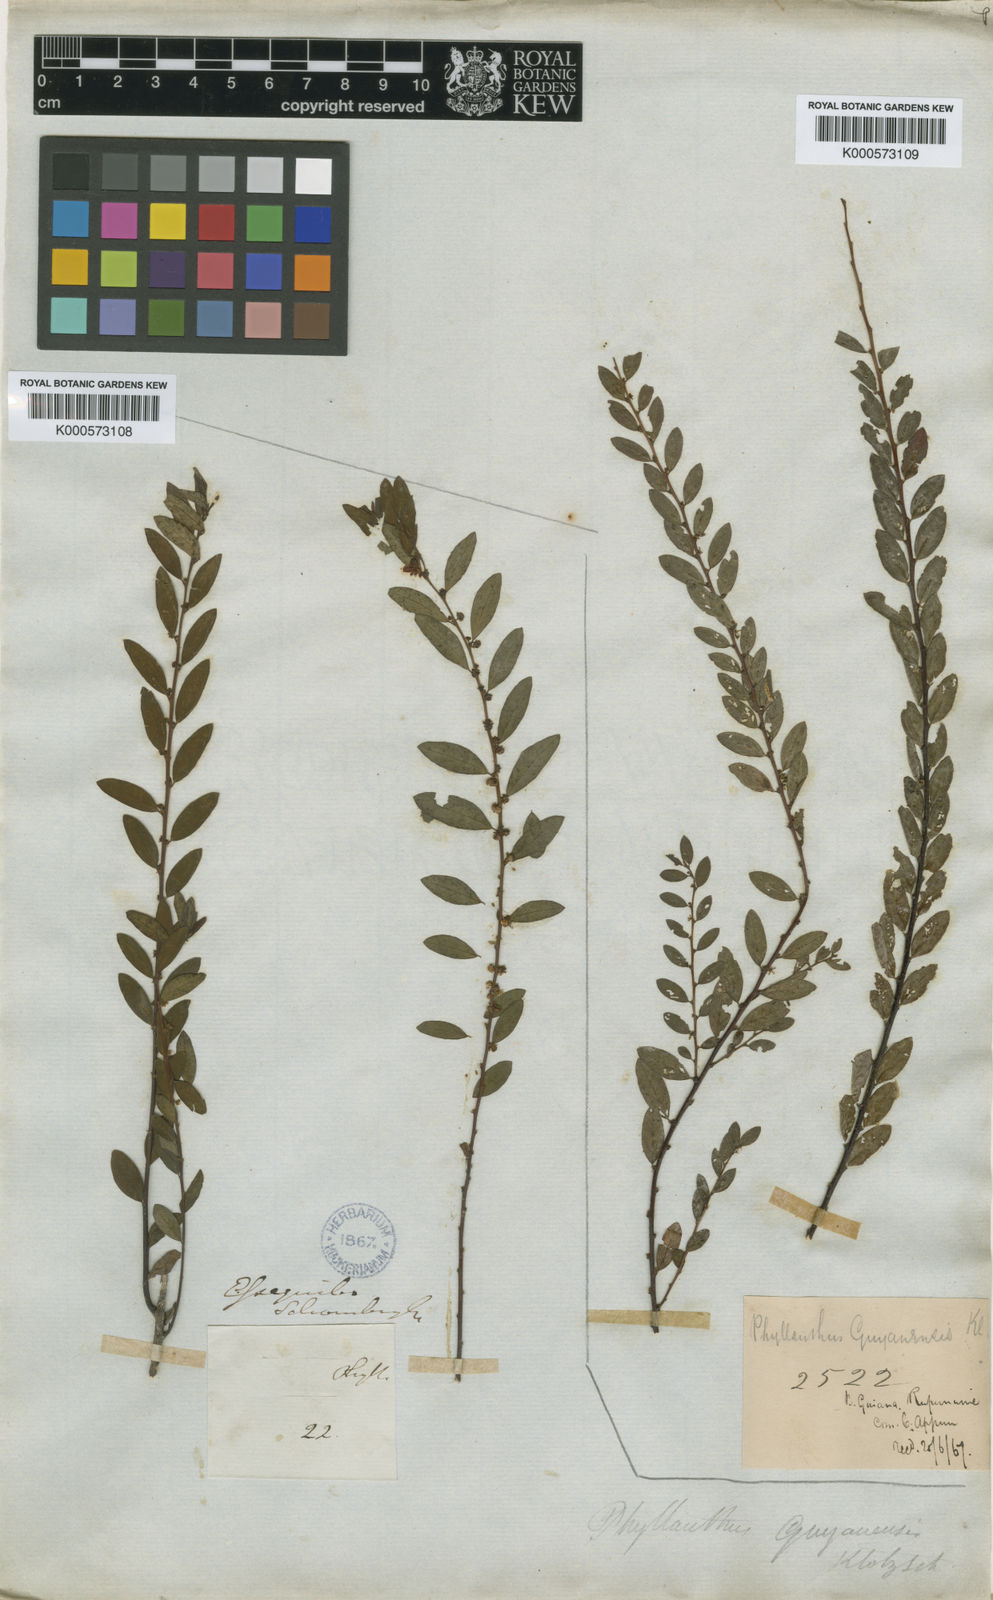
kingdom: Plantae
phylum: Tracheophyta
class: Magnoliopsida
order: Malpighiales
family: Phyllanthaceae
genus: Phyllanthus
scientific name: Phyllanthus caroliniensis
